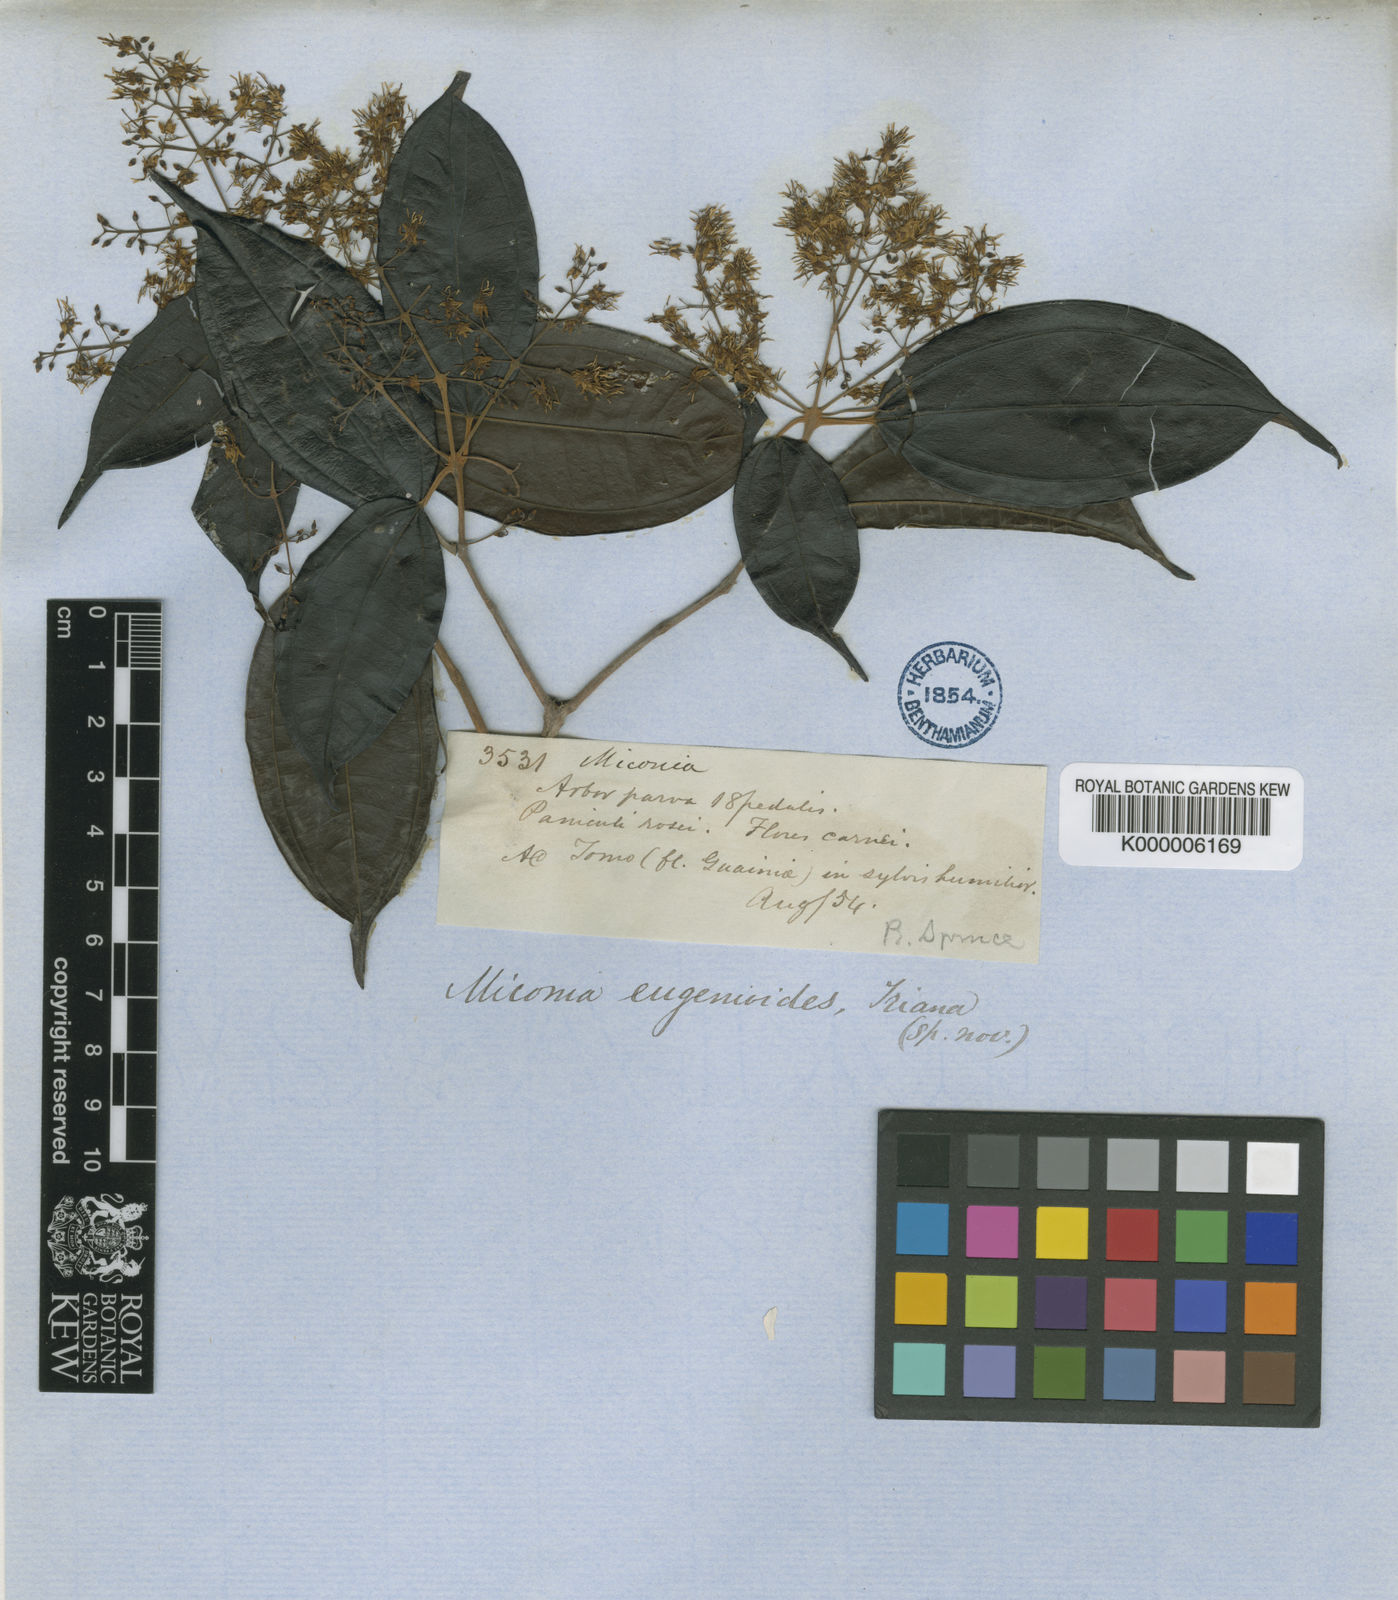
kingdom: Plantae
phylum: Tracheophyta
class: Magnoliopsida
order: Myrtales
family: Melastomataceae
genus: Miconia
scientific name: Miconia eugenioides
